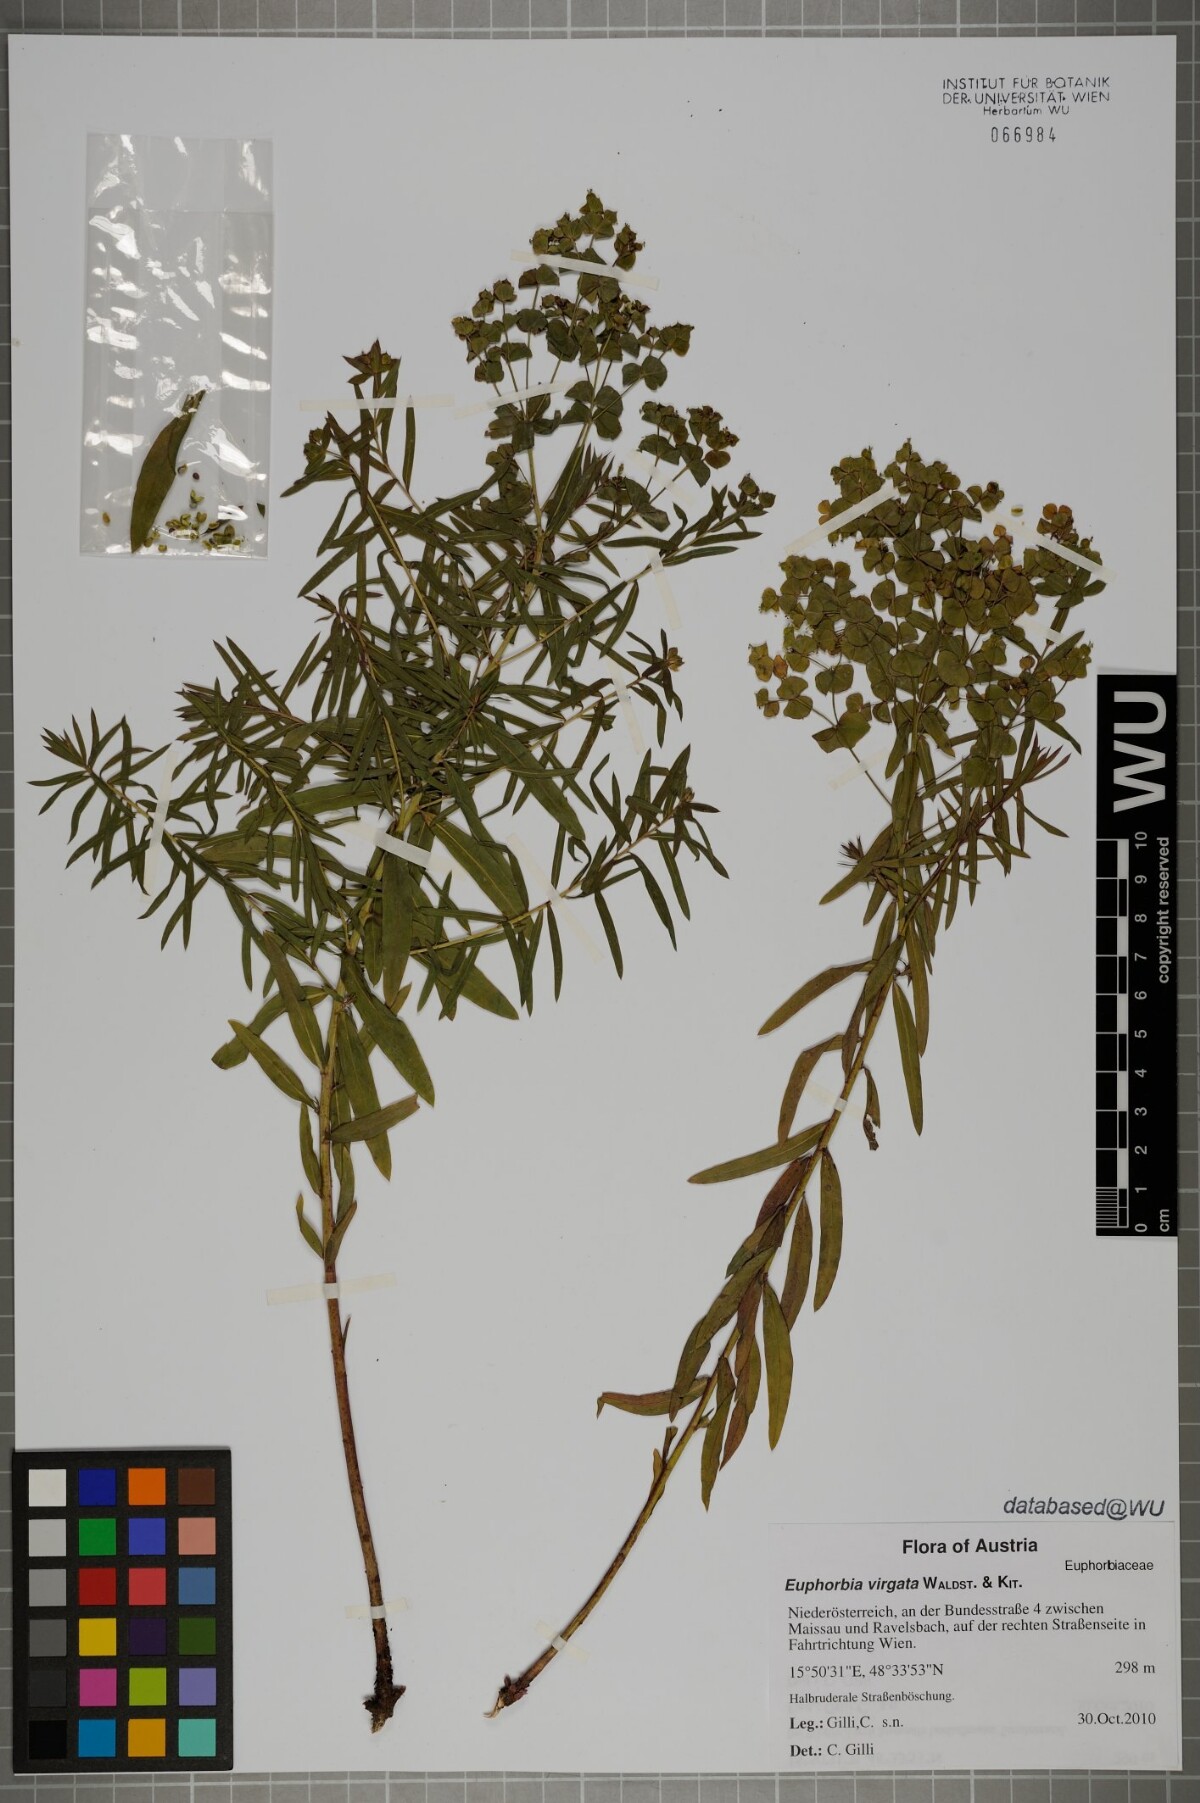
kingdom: Plantae
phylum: Tracheophyta
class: Magnoliopsida
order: Malpighiales
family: Euphorbiaceae
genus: Euphorbia
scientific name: Euphorbia virgata
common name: Leafy spurge
